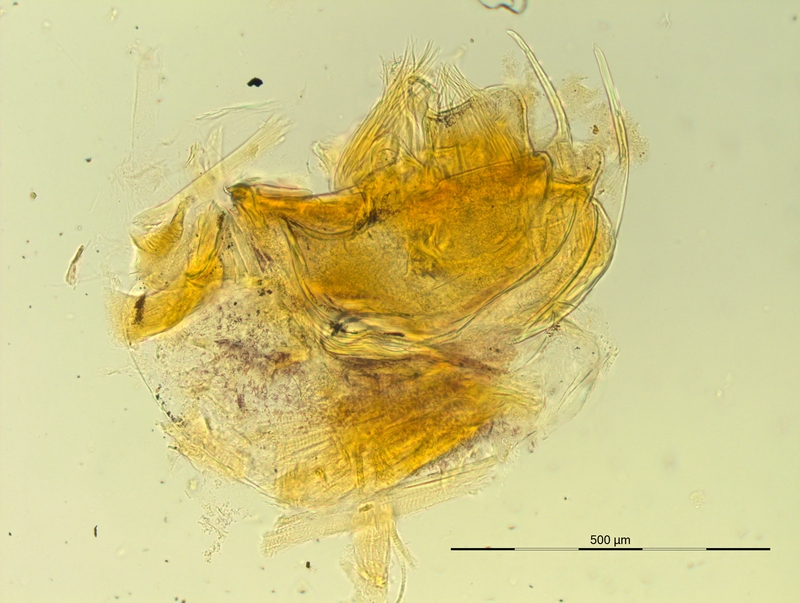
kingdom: Animalia
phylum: Arthropoda
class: Diplopoda
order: Chordeumatida
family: Craspedosomatidae
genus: Pyrgocyphosoma
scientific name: Pyrgocyphosoma serpentinum
